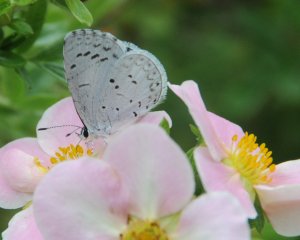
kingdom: Animalia
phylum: Arthropoda
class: Insecta
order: Lepidoptera
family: Lycaenidae
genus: Cyaniris
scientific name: Cyaniris neglecta
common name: Summer Azure
